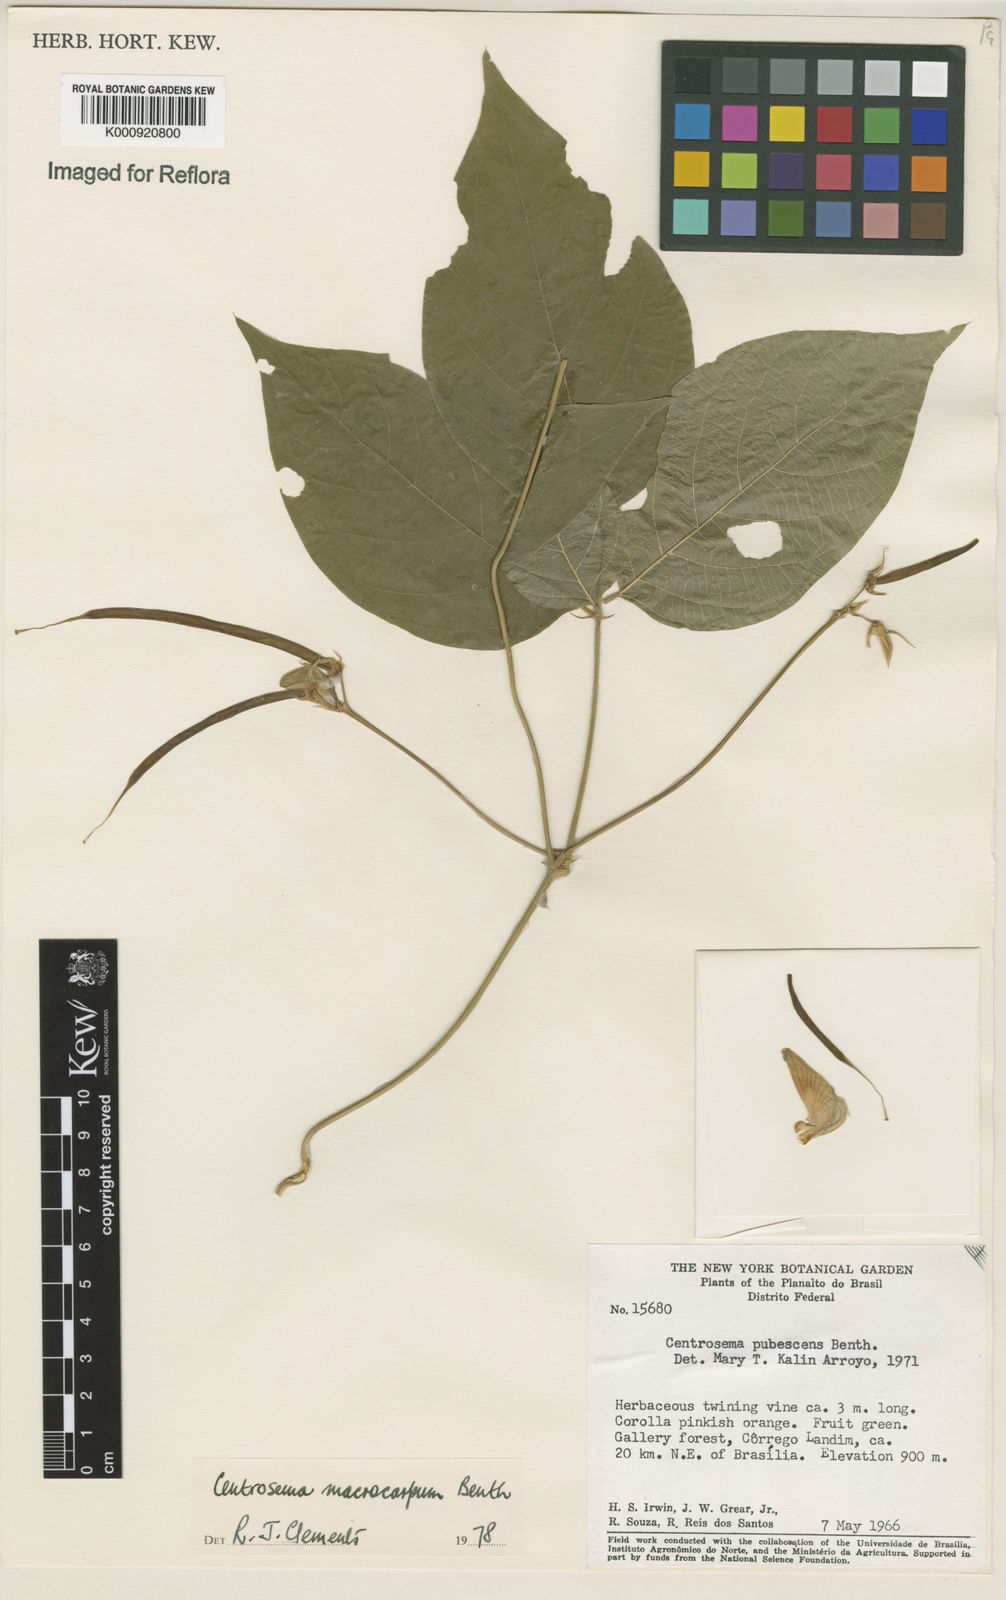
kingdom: Plantae
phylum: Tracheophyta
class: Magnoliopsida
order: Fabales
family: Fabaceae
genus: Centrosema
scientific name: Centrosema macrocarpum
